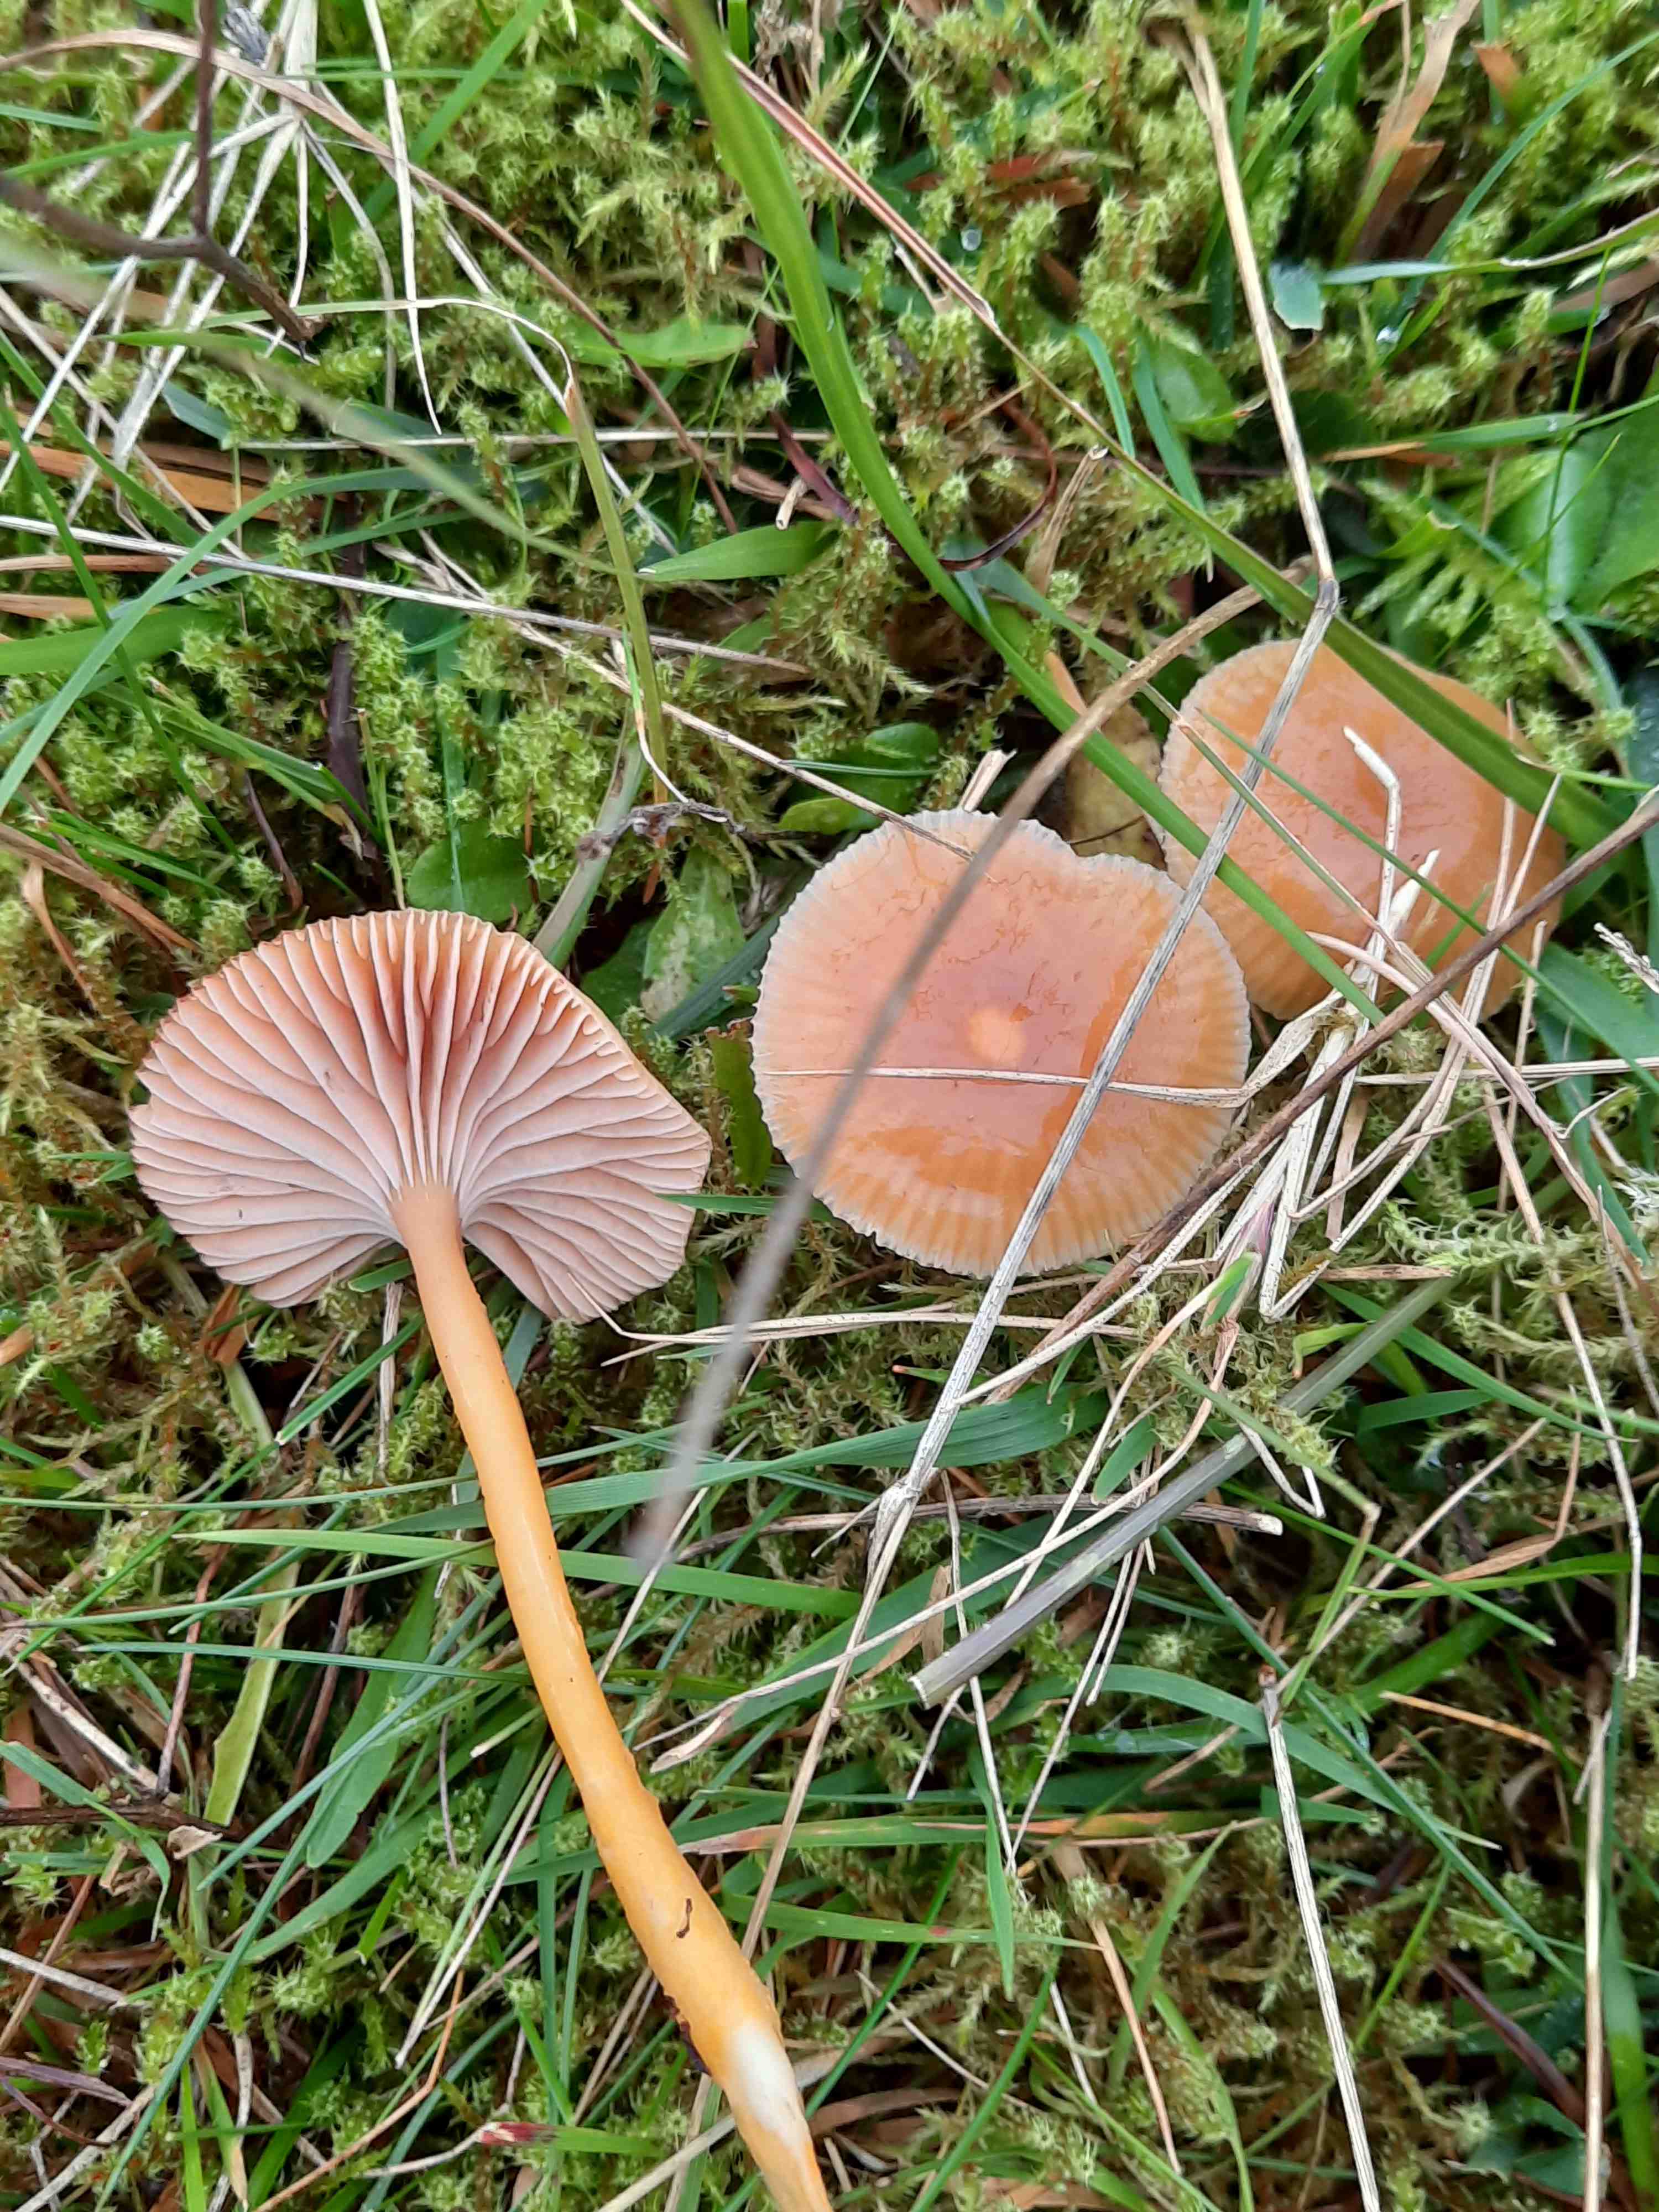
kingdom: Fungi
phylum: Basidiomycota
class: Agaricomycetes
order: Agaricales
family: Hygrophoraceae
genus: Gliophorus
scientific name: Gliophorus laetus
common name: brusk-vokshat
